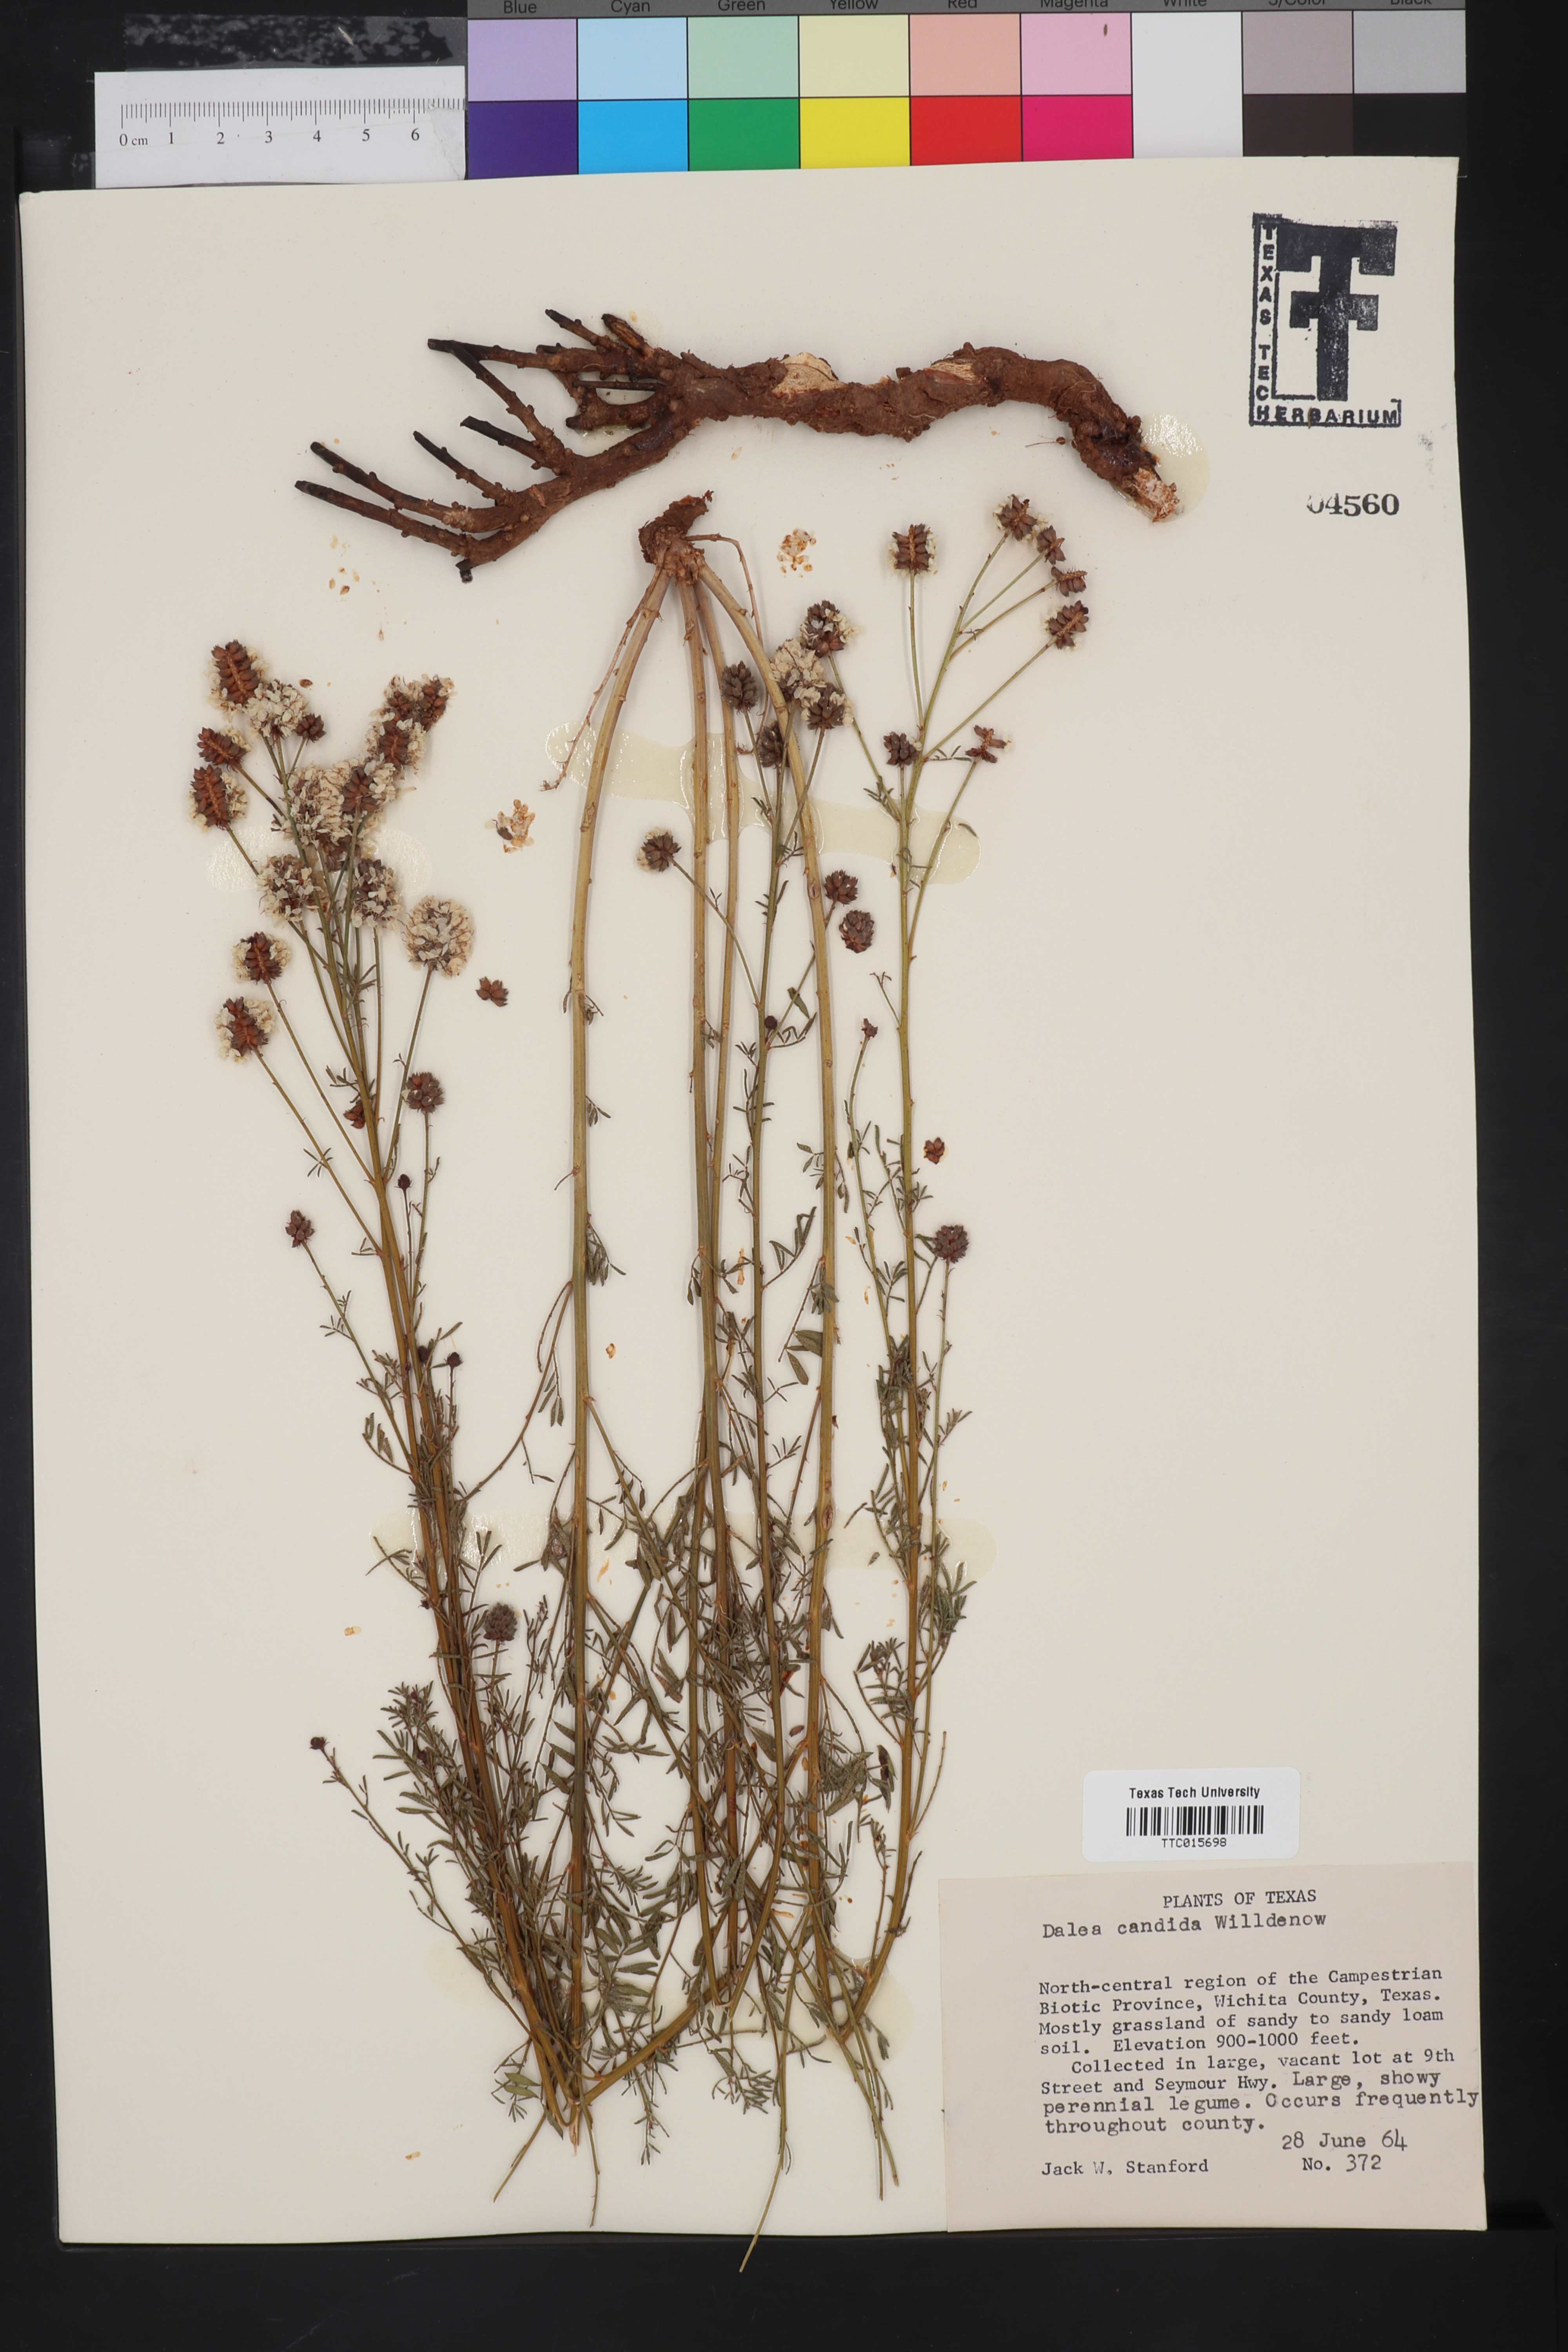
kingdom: Plantae
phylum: Tracheophyta
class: Magnoliopsida
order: Fabales
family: Fabaceae
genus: Petalostemum
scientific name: Petalostemum
